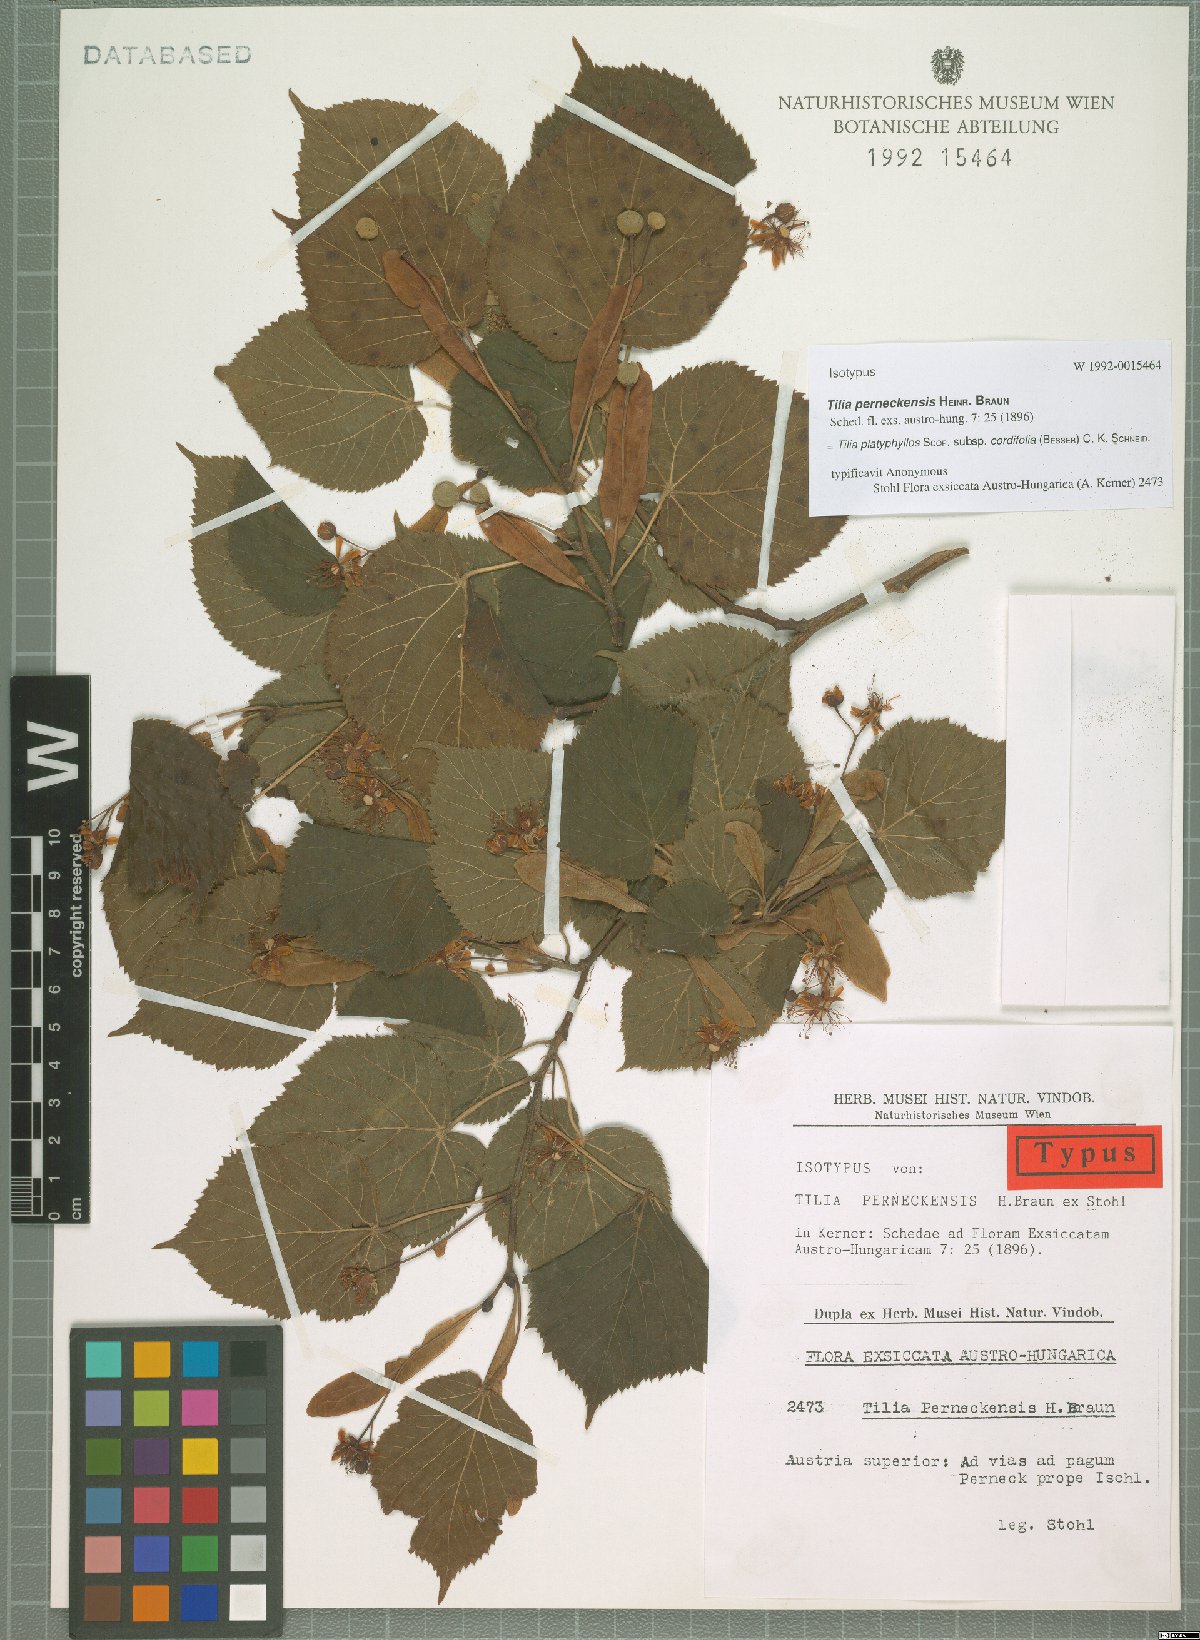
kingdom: Plantae
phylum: Tracheophyta
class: Magnoliopsida
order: Malvales
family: Malvaceae
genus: Tilia
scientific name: Tilia platyphyllos
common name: Large-leaved lime
